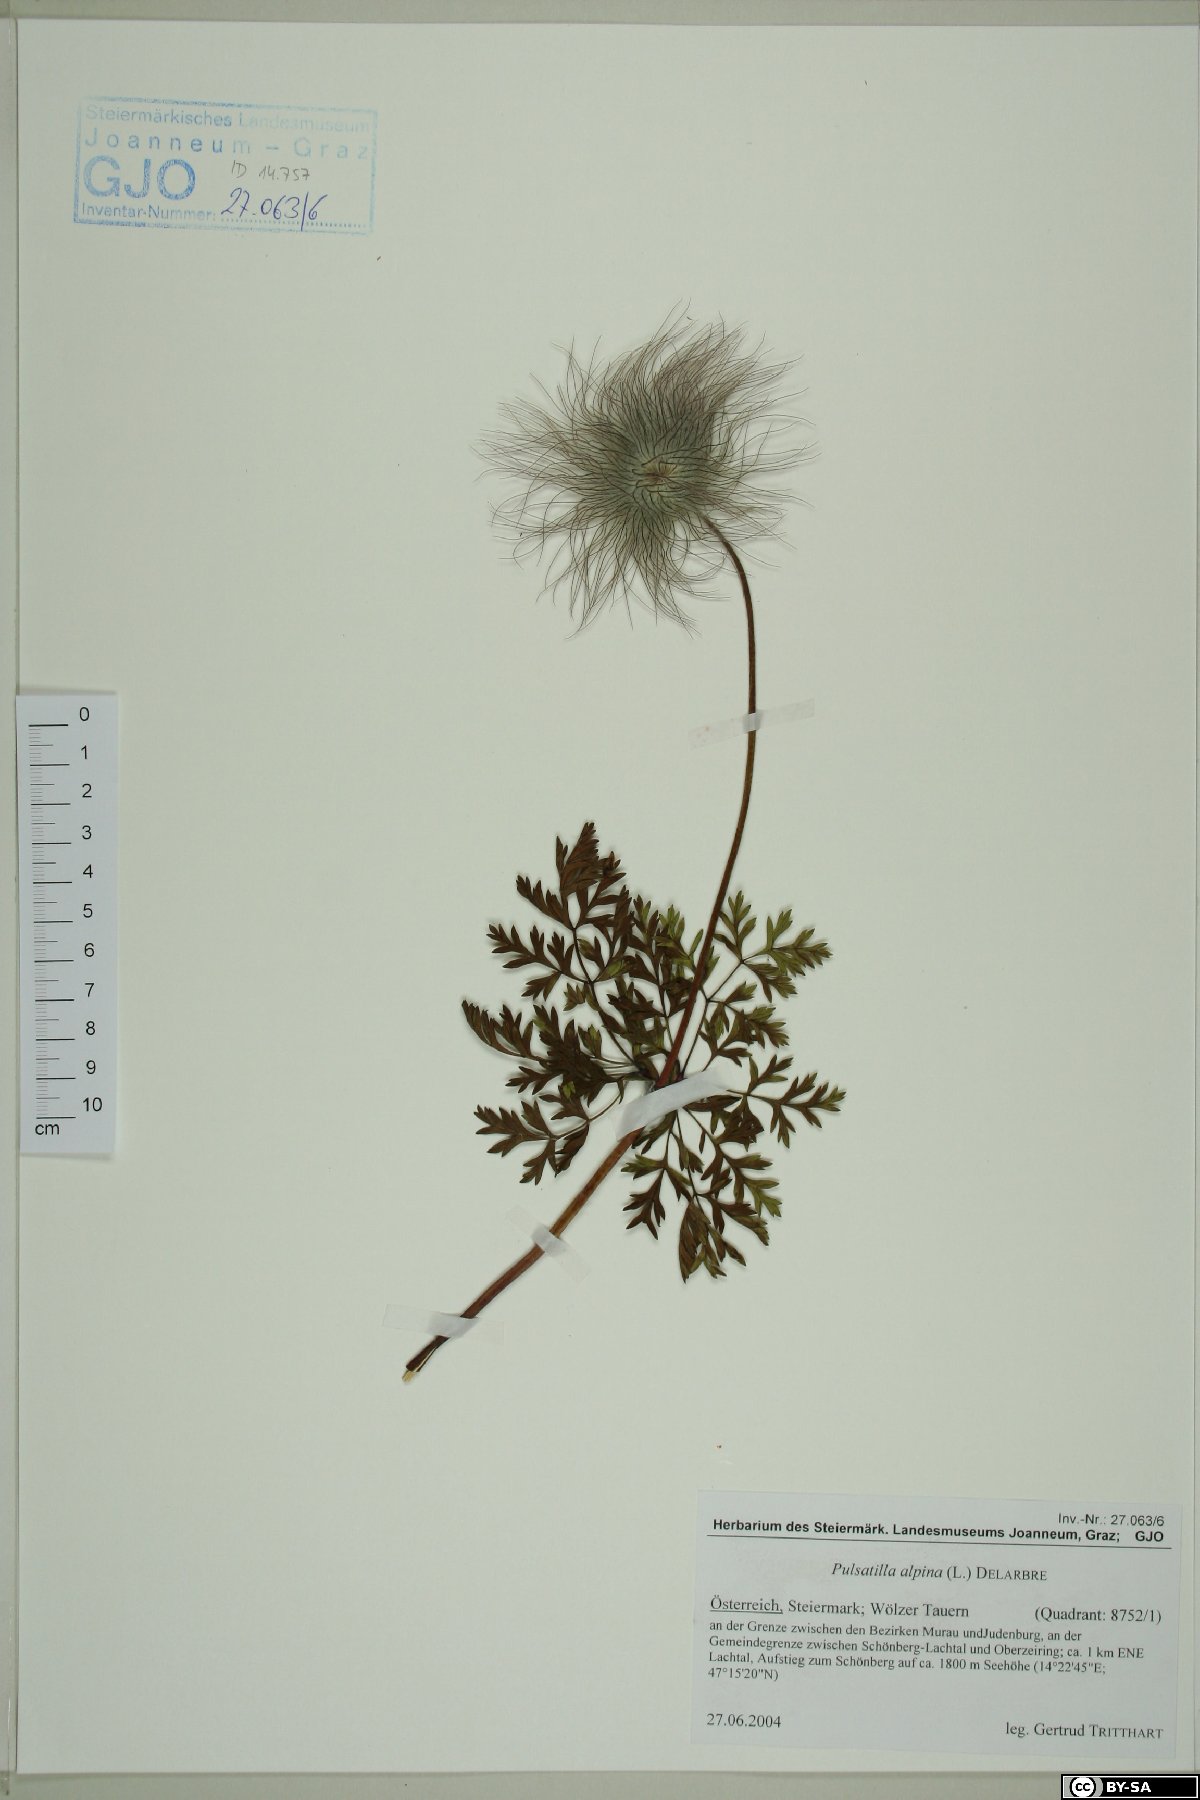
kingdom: Plantae
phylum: Tracheophyta
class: Magnoliopsida
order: Ranunculales
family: Ranunculaceae
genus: Pulsatilla
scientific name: Pulsatilla alpina
